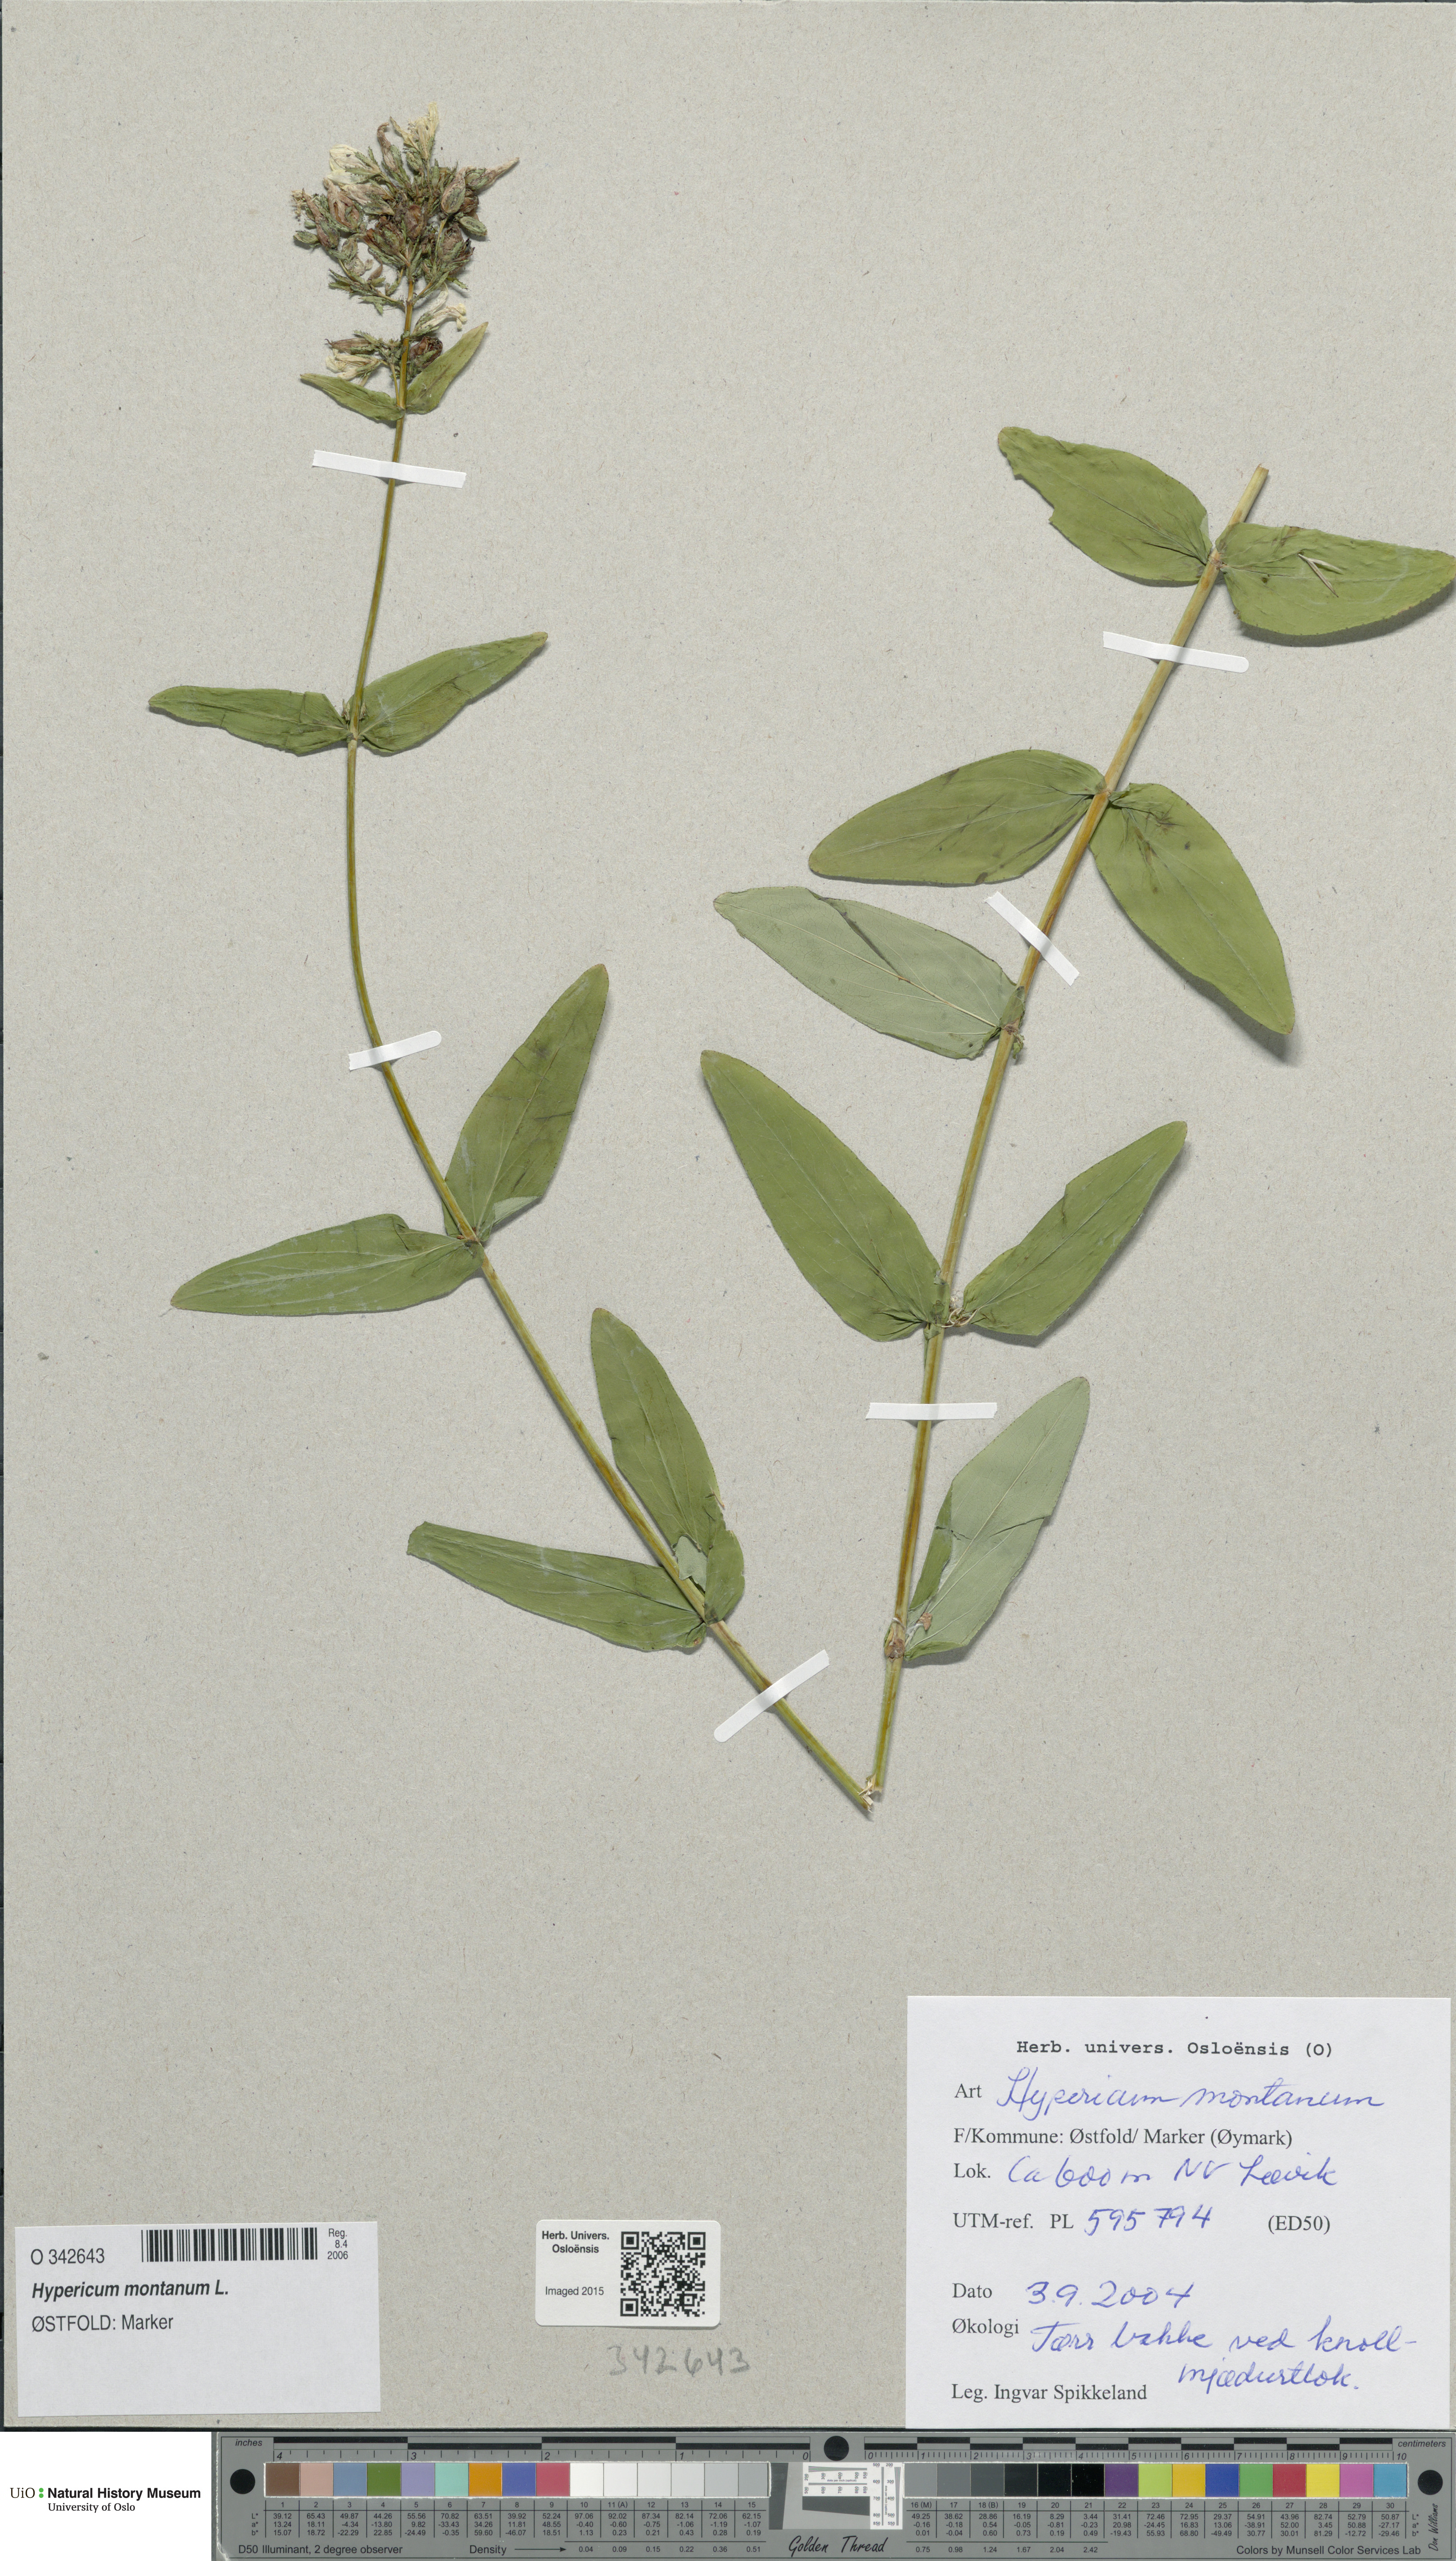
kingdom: Plantae
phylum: Tracheophyta
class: Magnoliopsida
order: Malpighiales
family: Hypericaceae
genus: Hypericum
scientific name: Hypericum montanum
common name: Pale st. john's-wort
